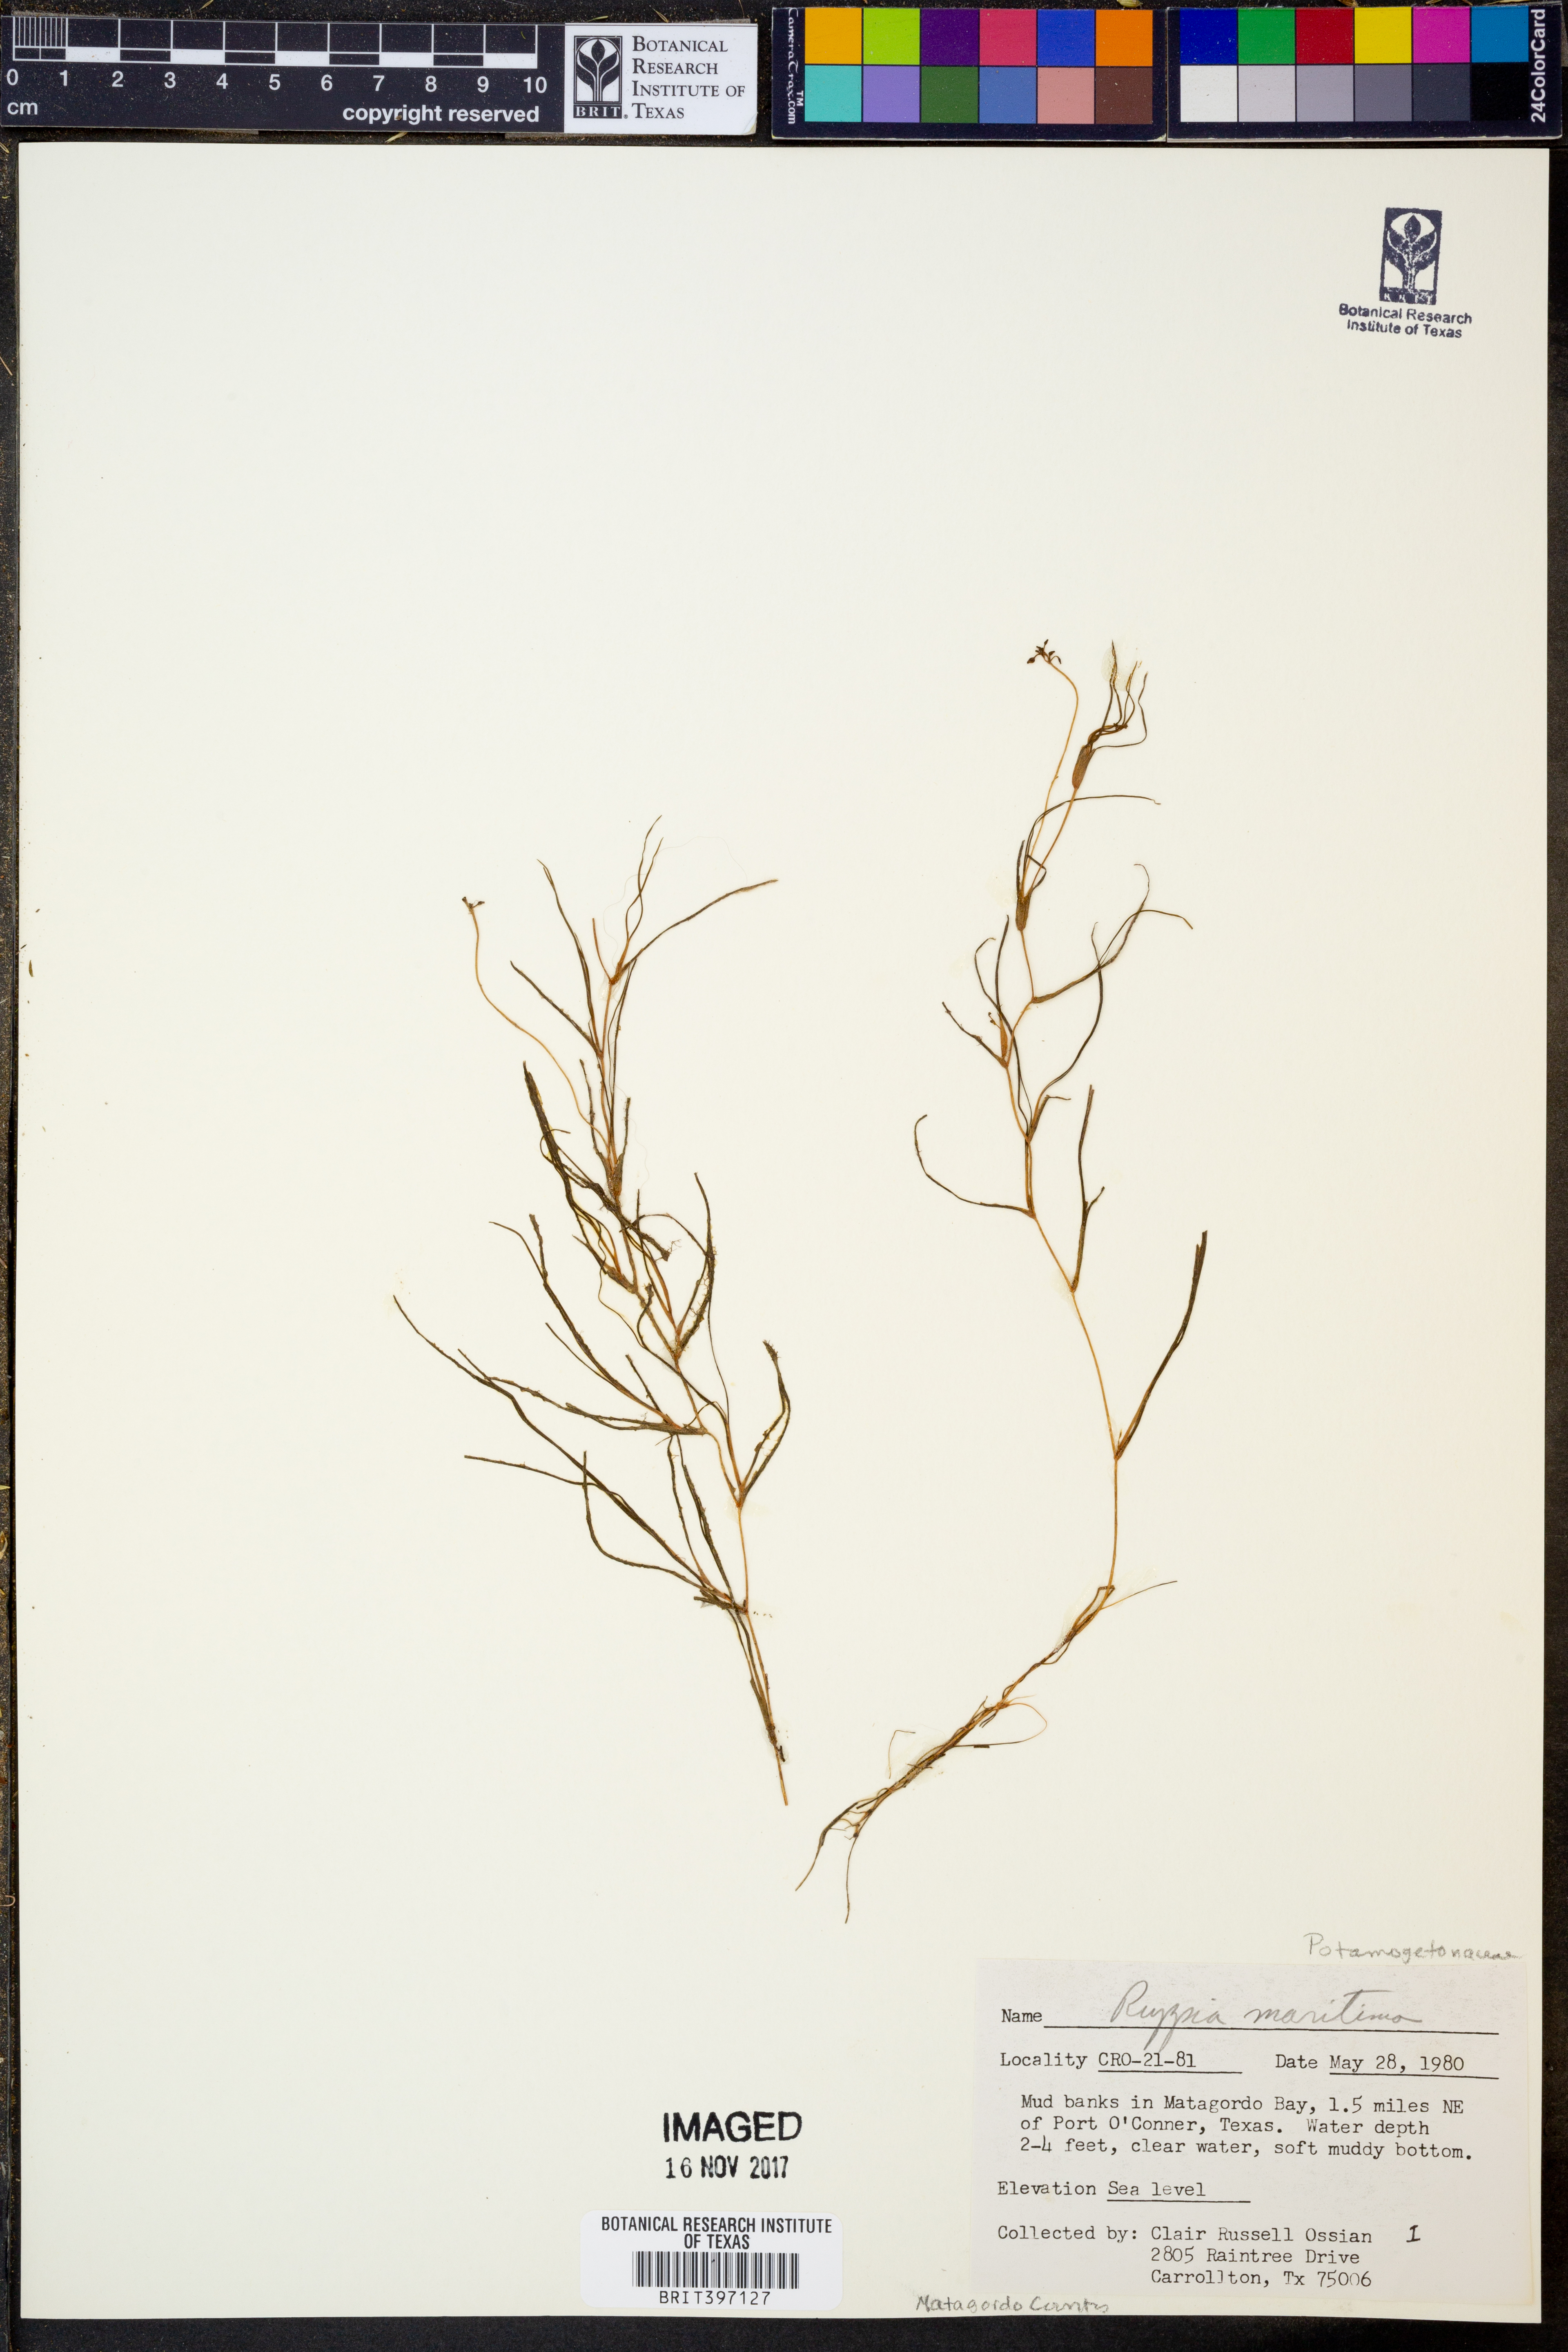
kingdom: Plantae
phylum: Tracheophyta
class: Liliopsida
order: Alismatales
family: Ruppiaceae
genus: Ruppia
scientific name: Ruppia maritima
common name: Beaked tasselweed
